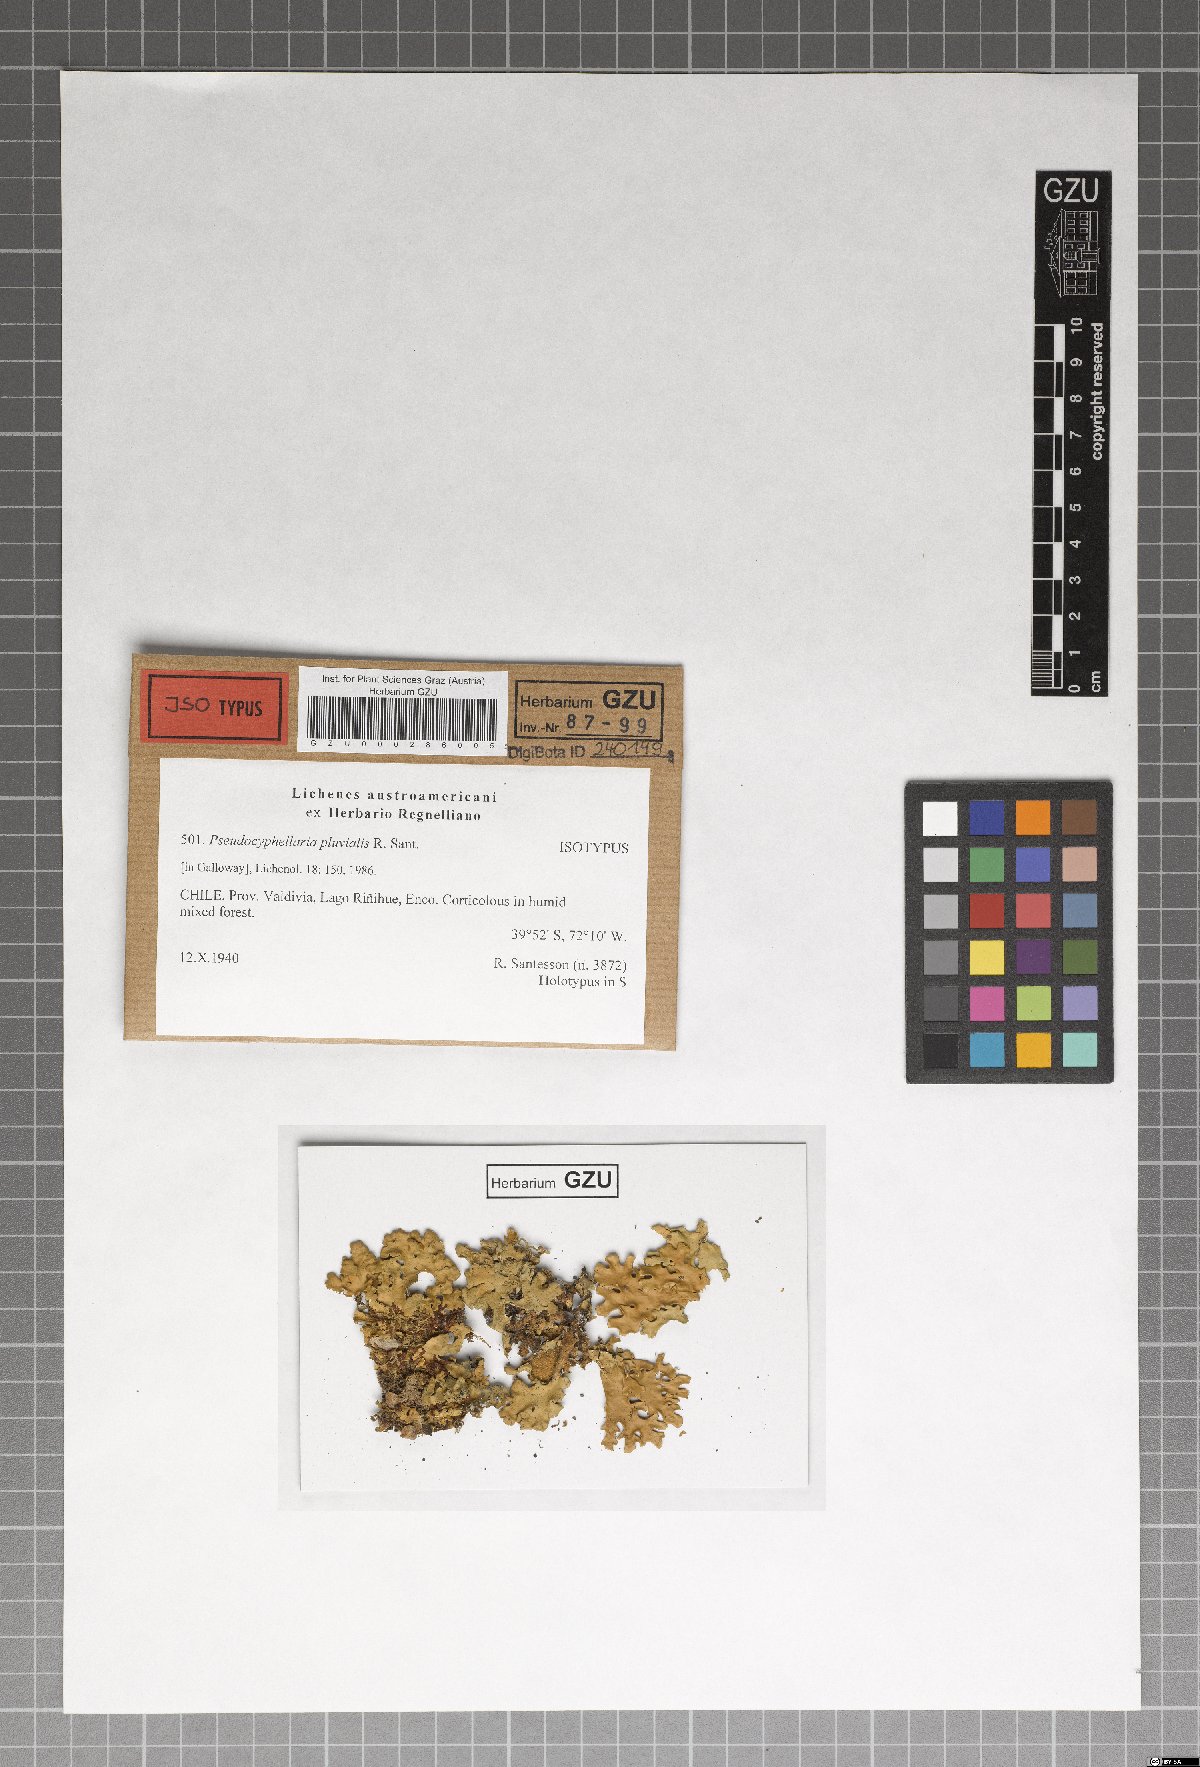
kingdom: Fungi
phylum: Ascomycota
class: Lecanoromycetes
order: Peltigerales
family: Lobariaceae
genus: Pseudocyphellaria
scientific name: Pseudocyphellaria pluvialis
